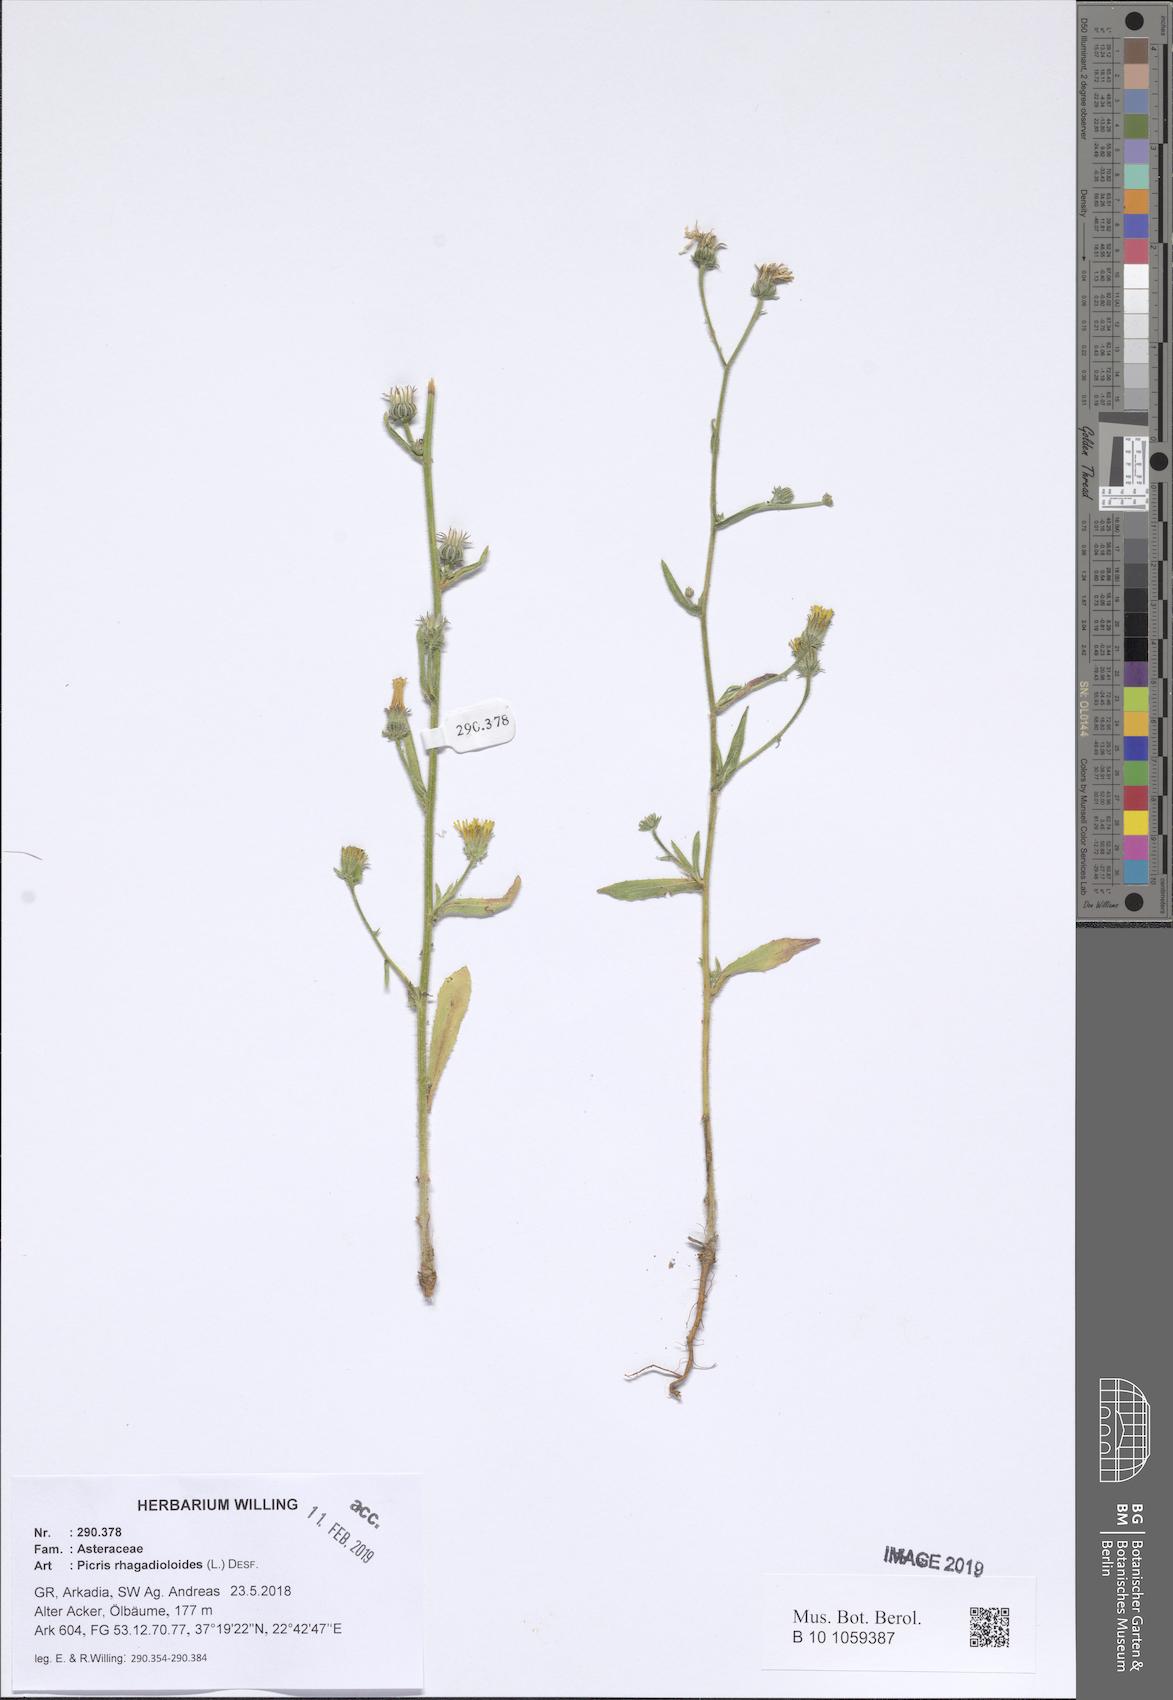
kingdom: Plantae
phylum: Tracheophyta
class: Magnoliopsida
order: Asterales
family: Asteraceae
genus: Picris
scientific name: Picris rhagadioloides
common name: Oxtongue
